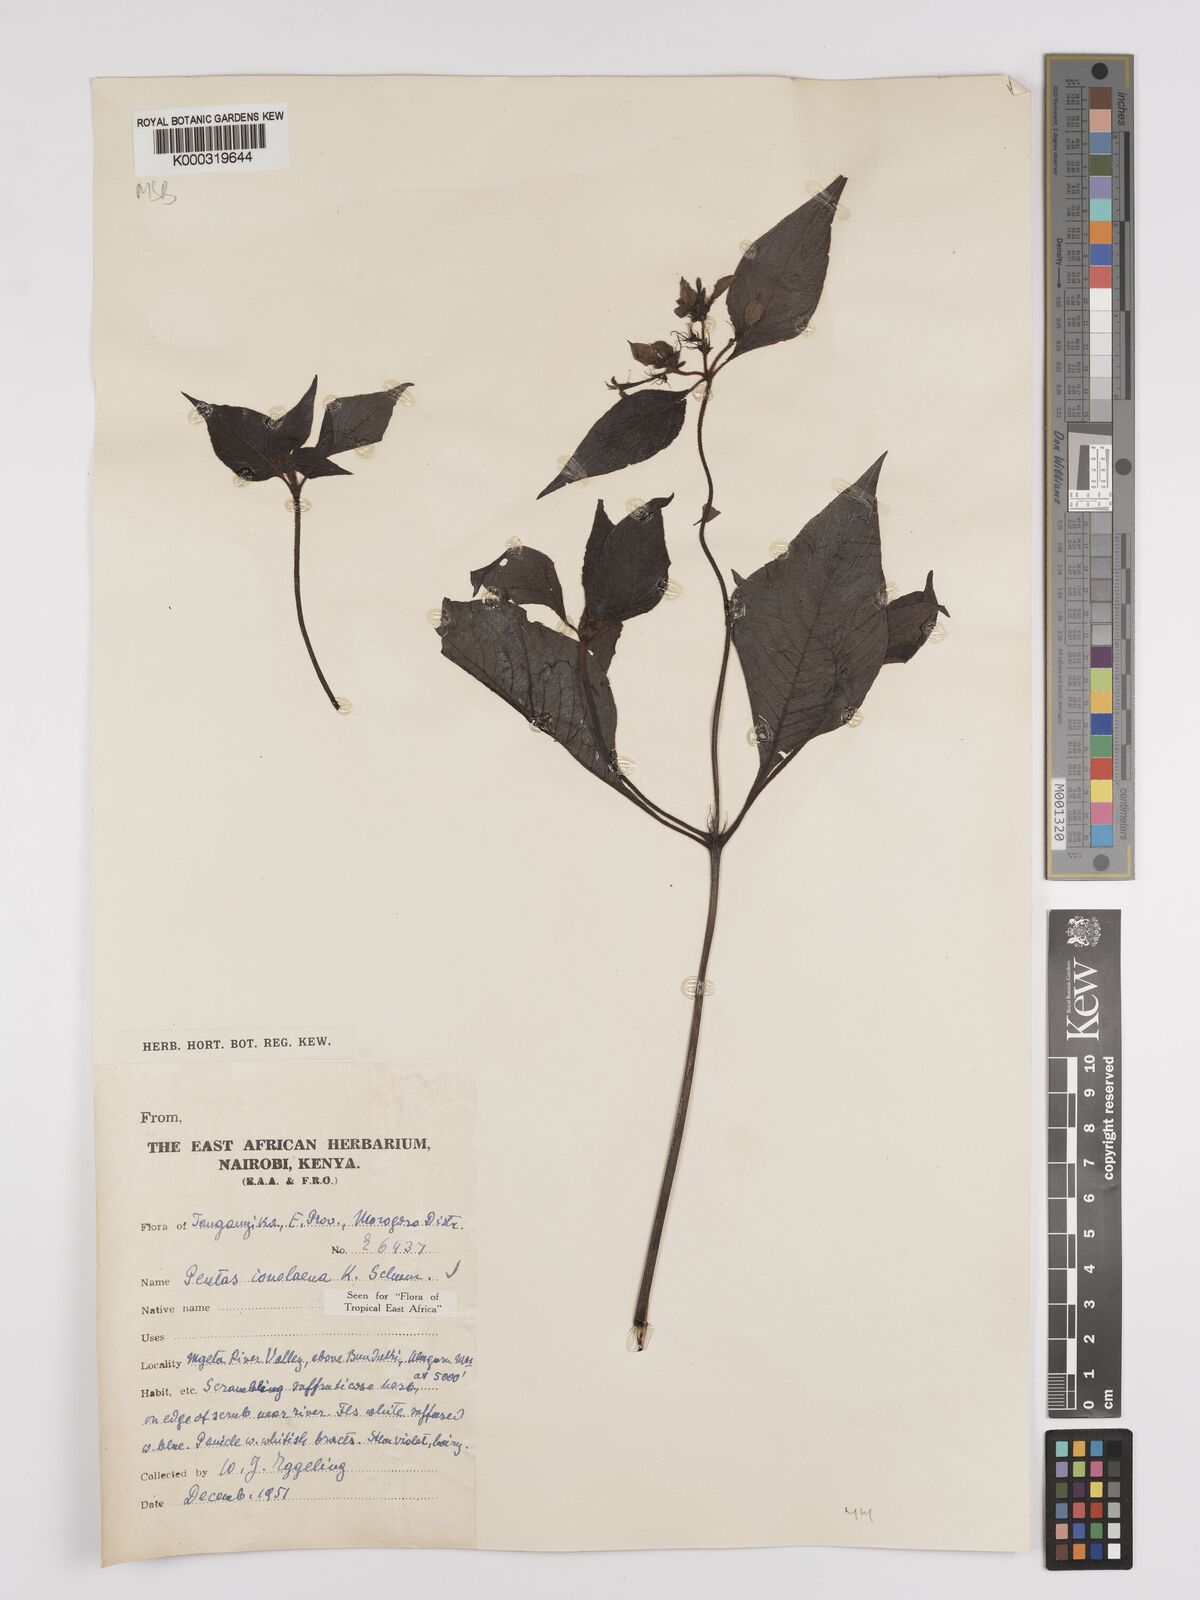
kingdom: Plantae
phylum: Tracheophyta
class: Magnoliopsida
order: Gentianales
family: Rubiaceae
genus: Phyllopentas
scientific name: Phyllopentas ionolaena
